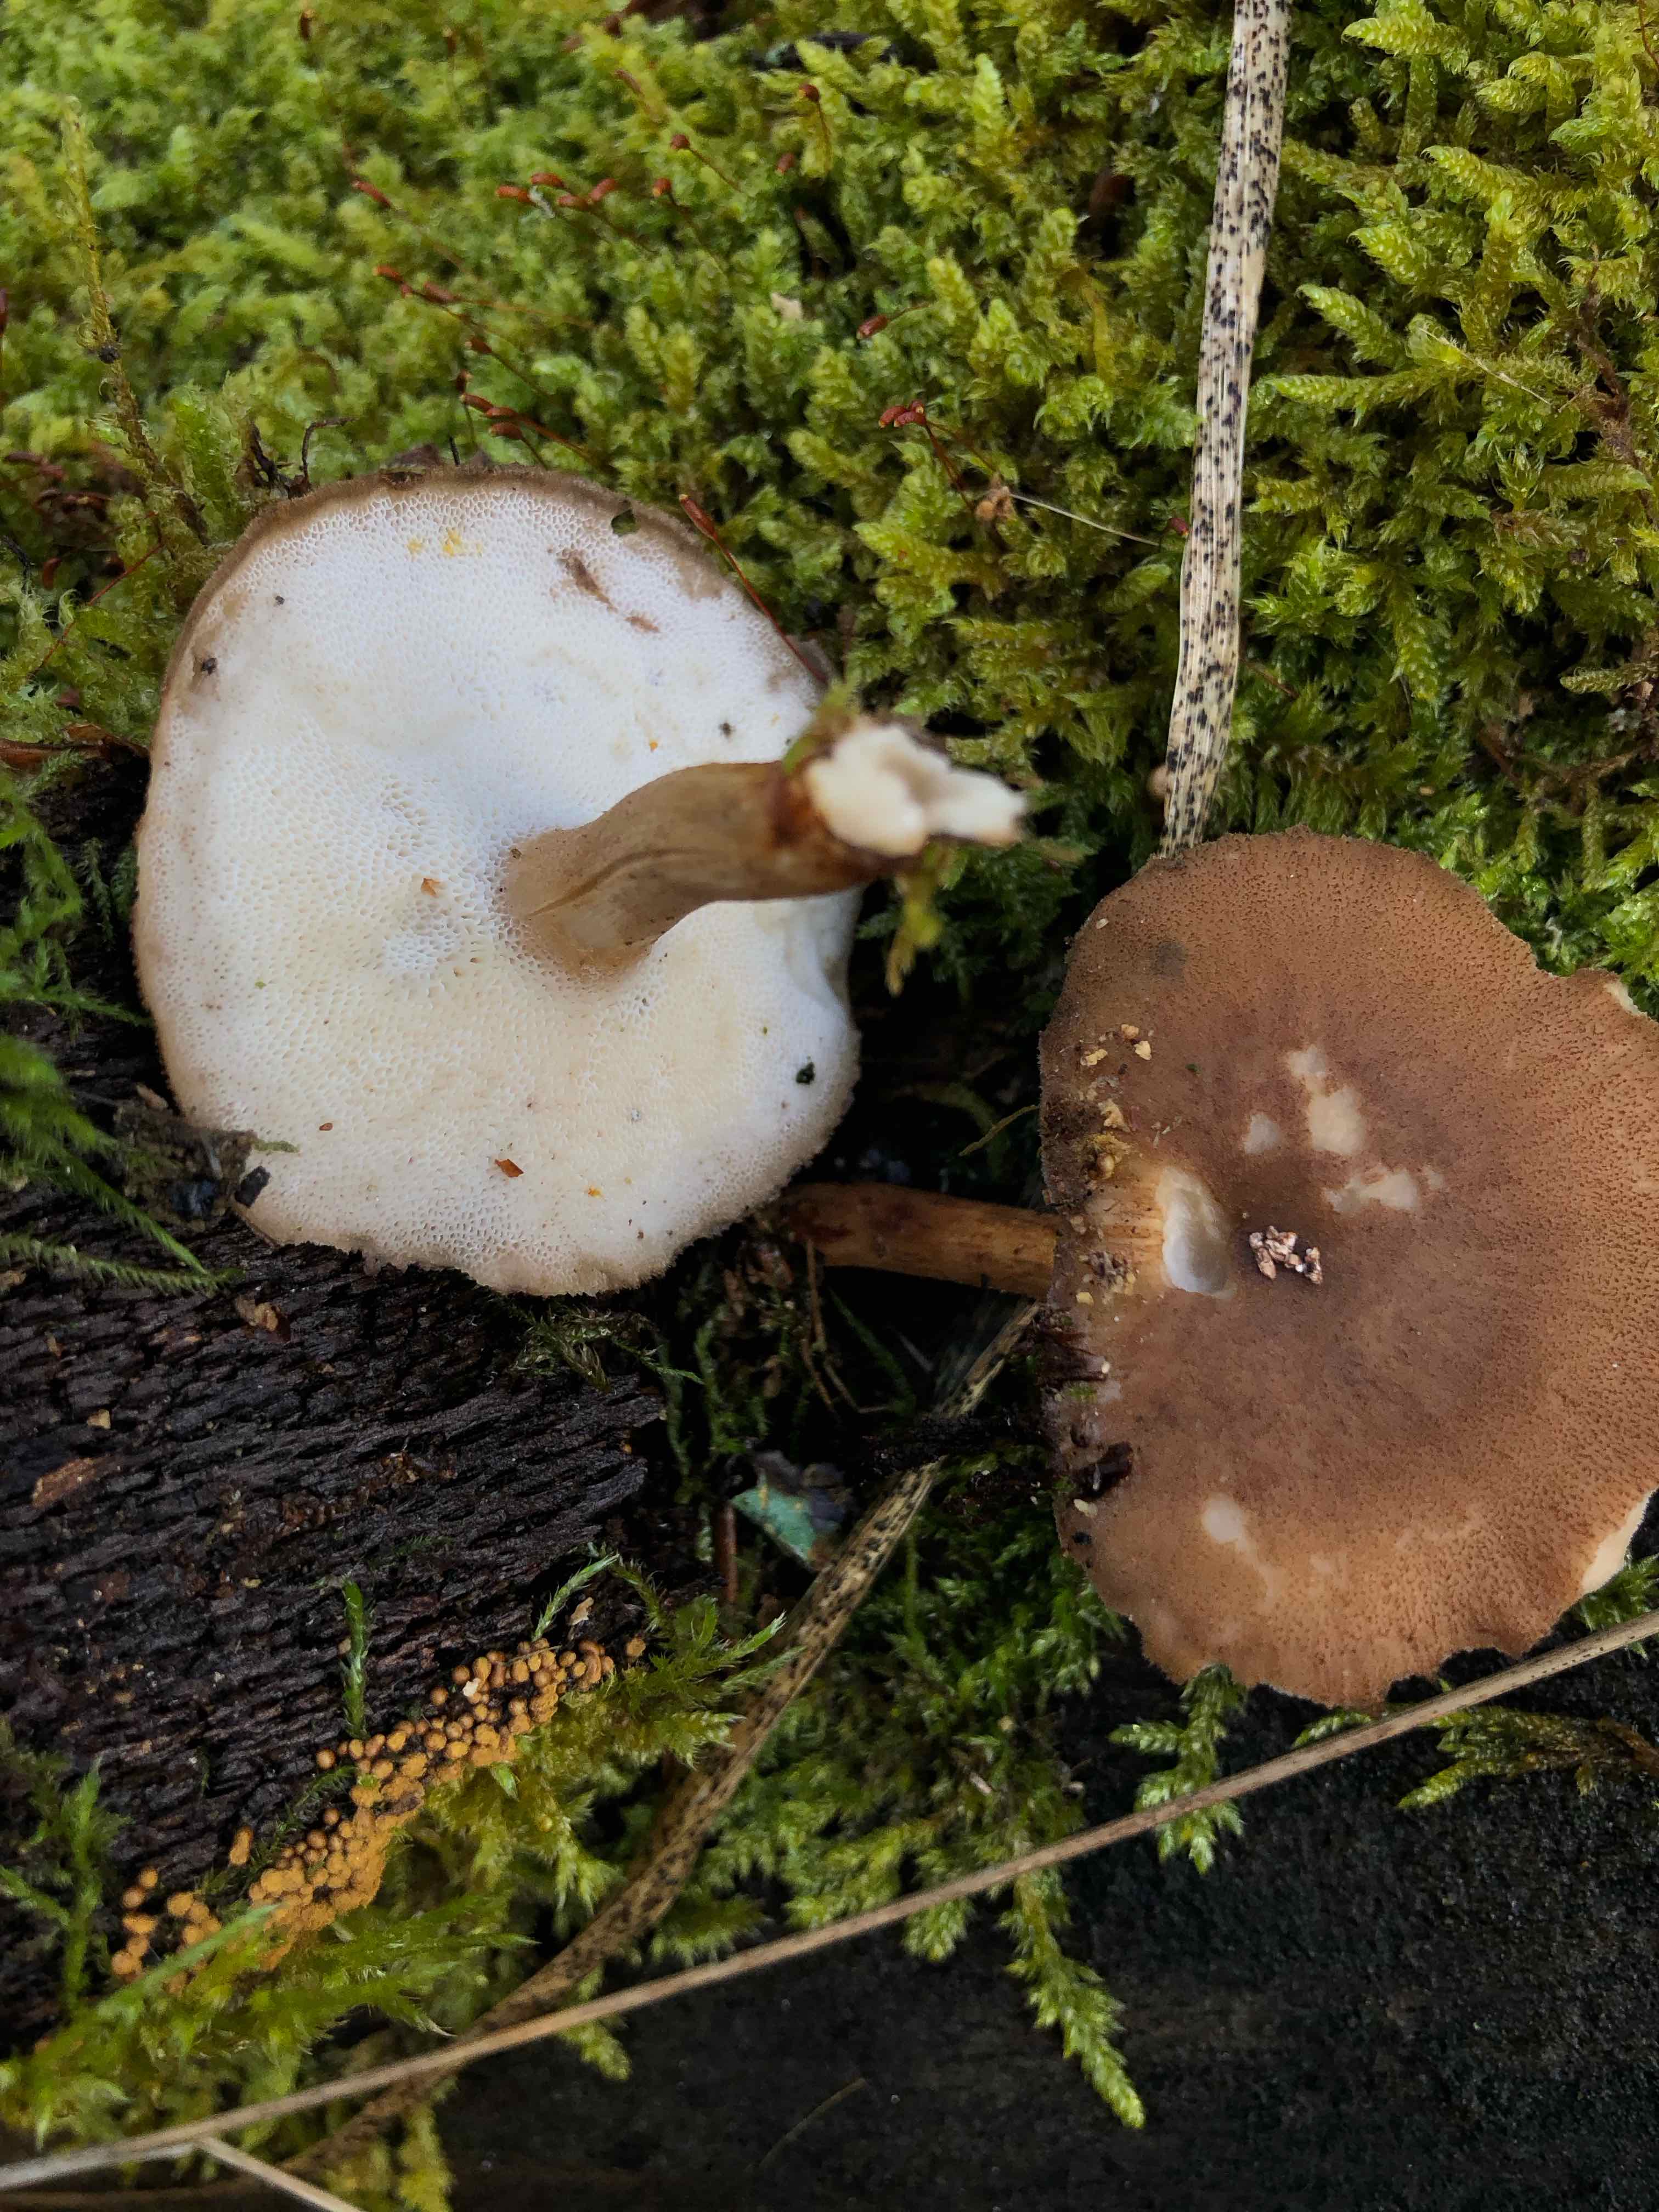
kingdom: Fungi
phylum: Basidiomycota
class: Agaricomycetes
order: Polyporales
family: Polyporaceae
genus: Lentinus
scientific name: Lentinus brumalis
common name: vinter-stilkporesvamp
